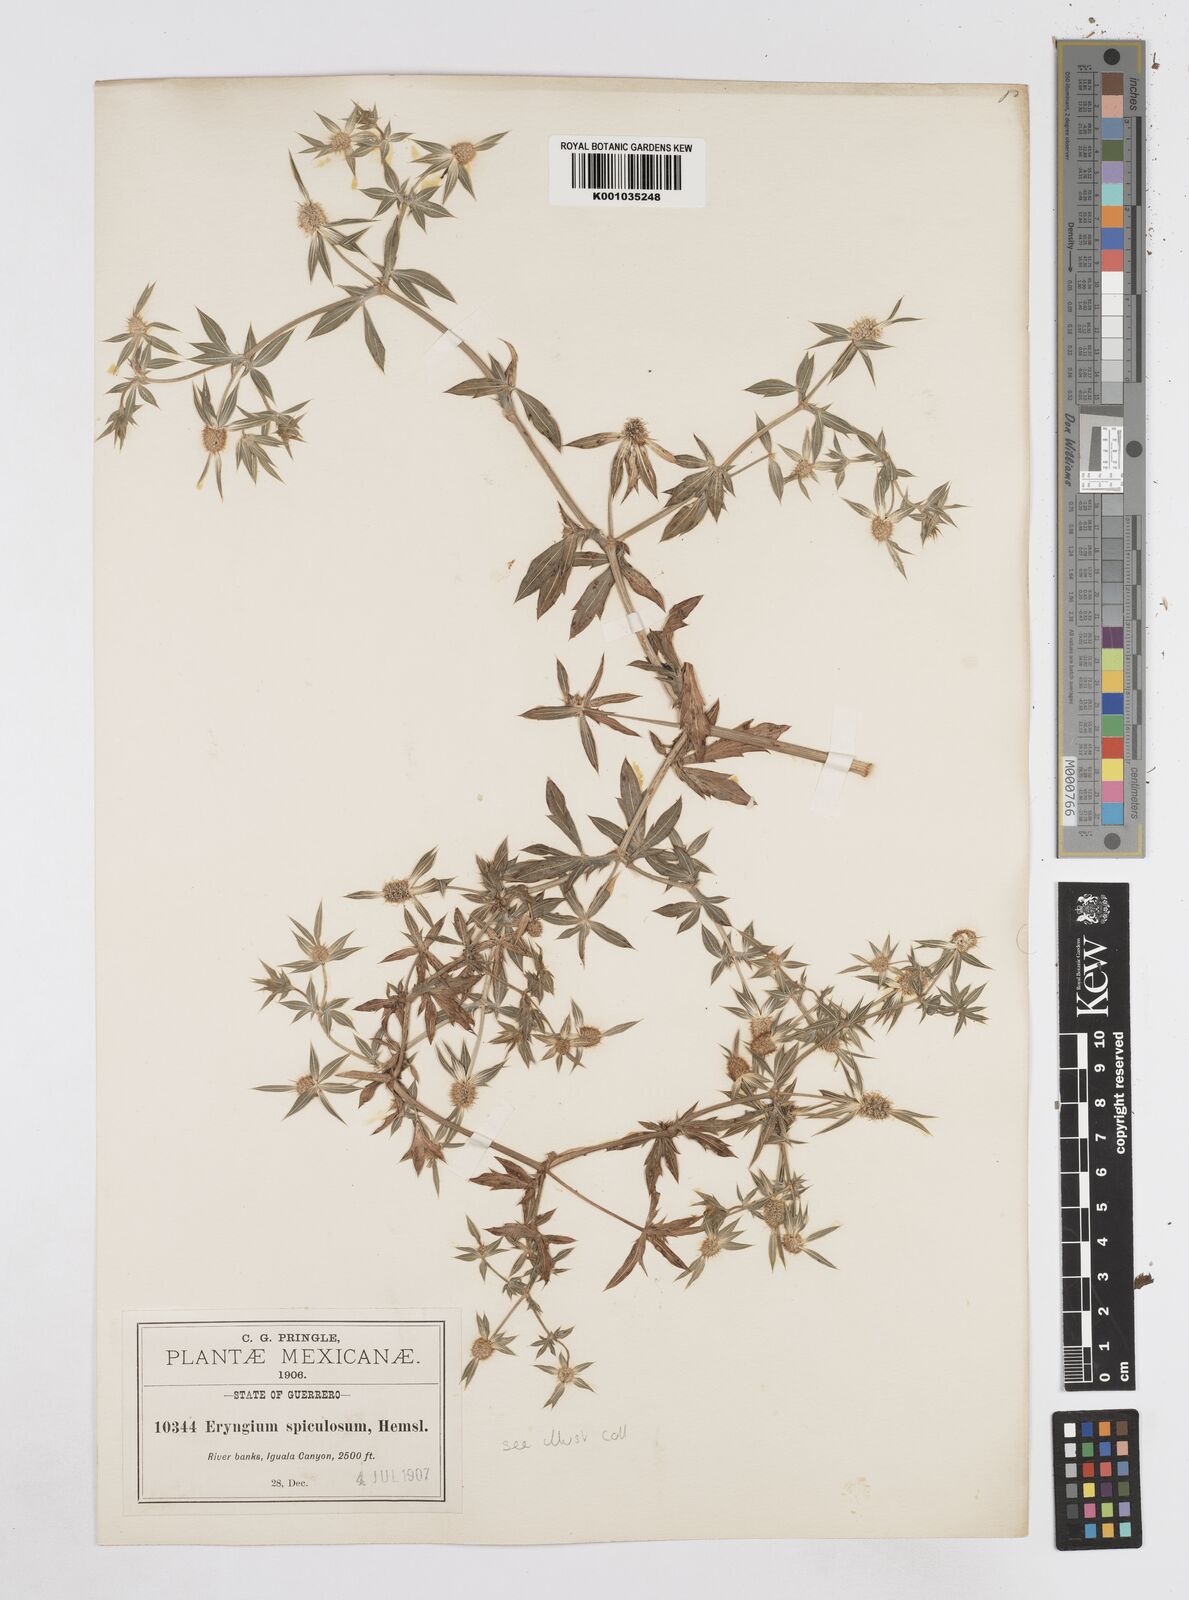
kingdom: Plantae
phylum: Tracheophyta
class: Magnoliopsida
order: Apiales
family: Apiaceae
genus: Eryngium
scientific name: Eryngium haenkei
